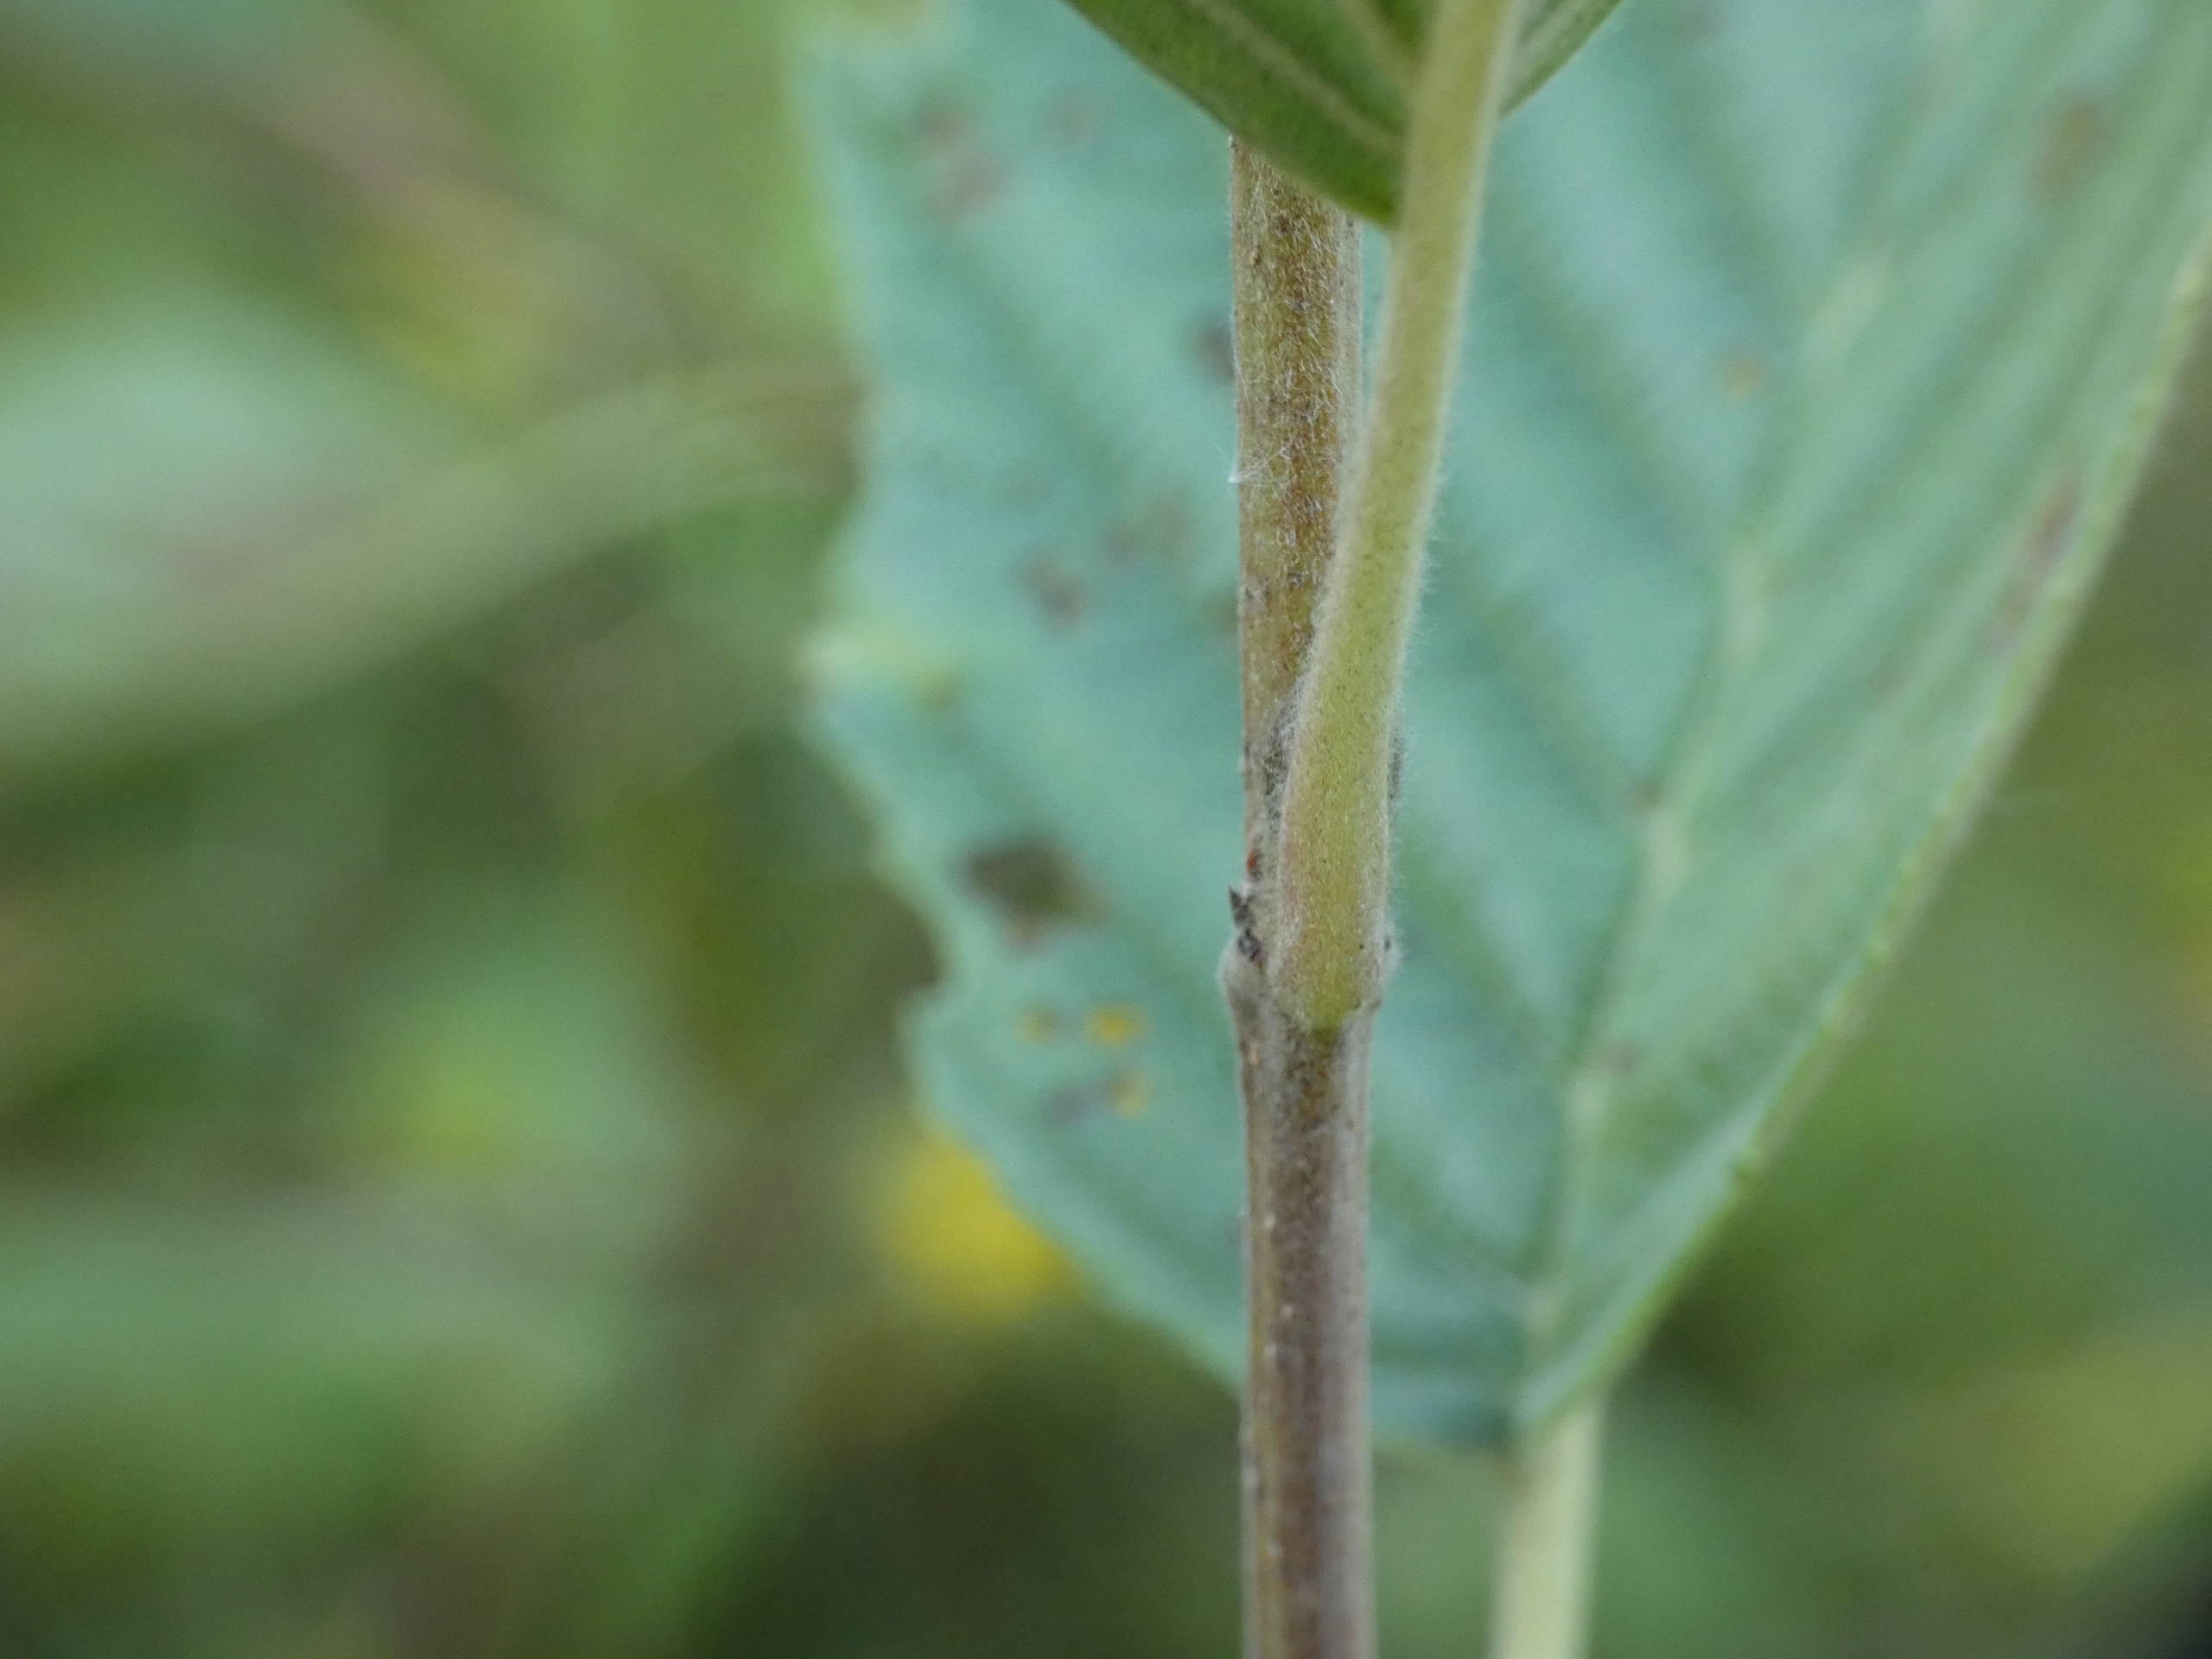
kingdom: Plantae
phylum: Tracheophyta
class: Magnoliopsida
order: Fagales
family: Betulaceae
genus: Alnus
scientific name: Alnus incana
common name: Grå-el/hvid-el
